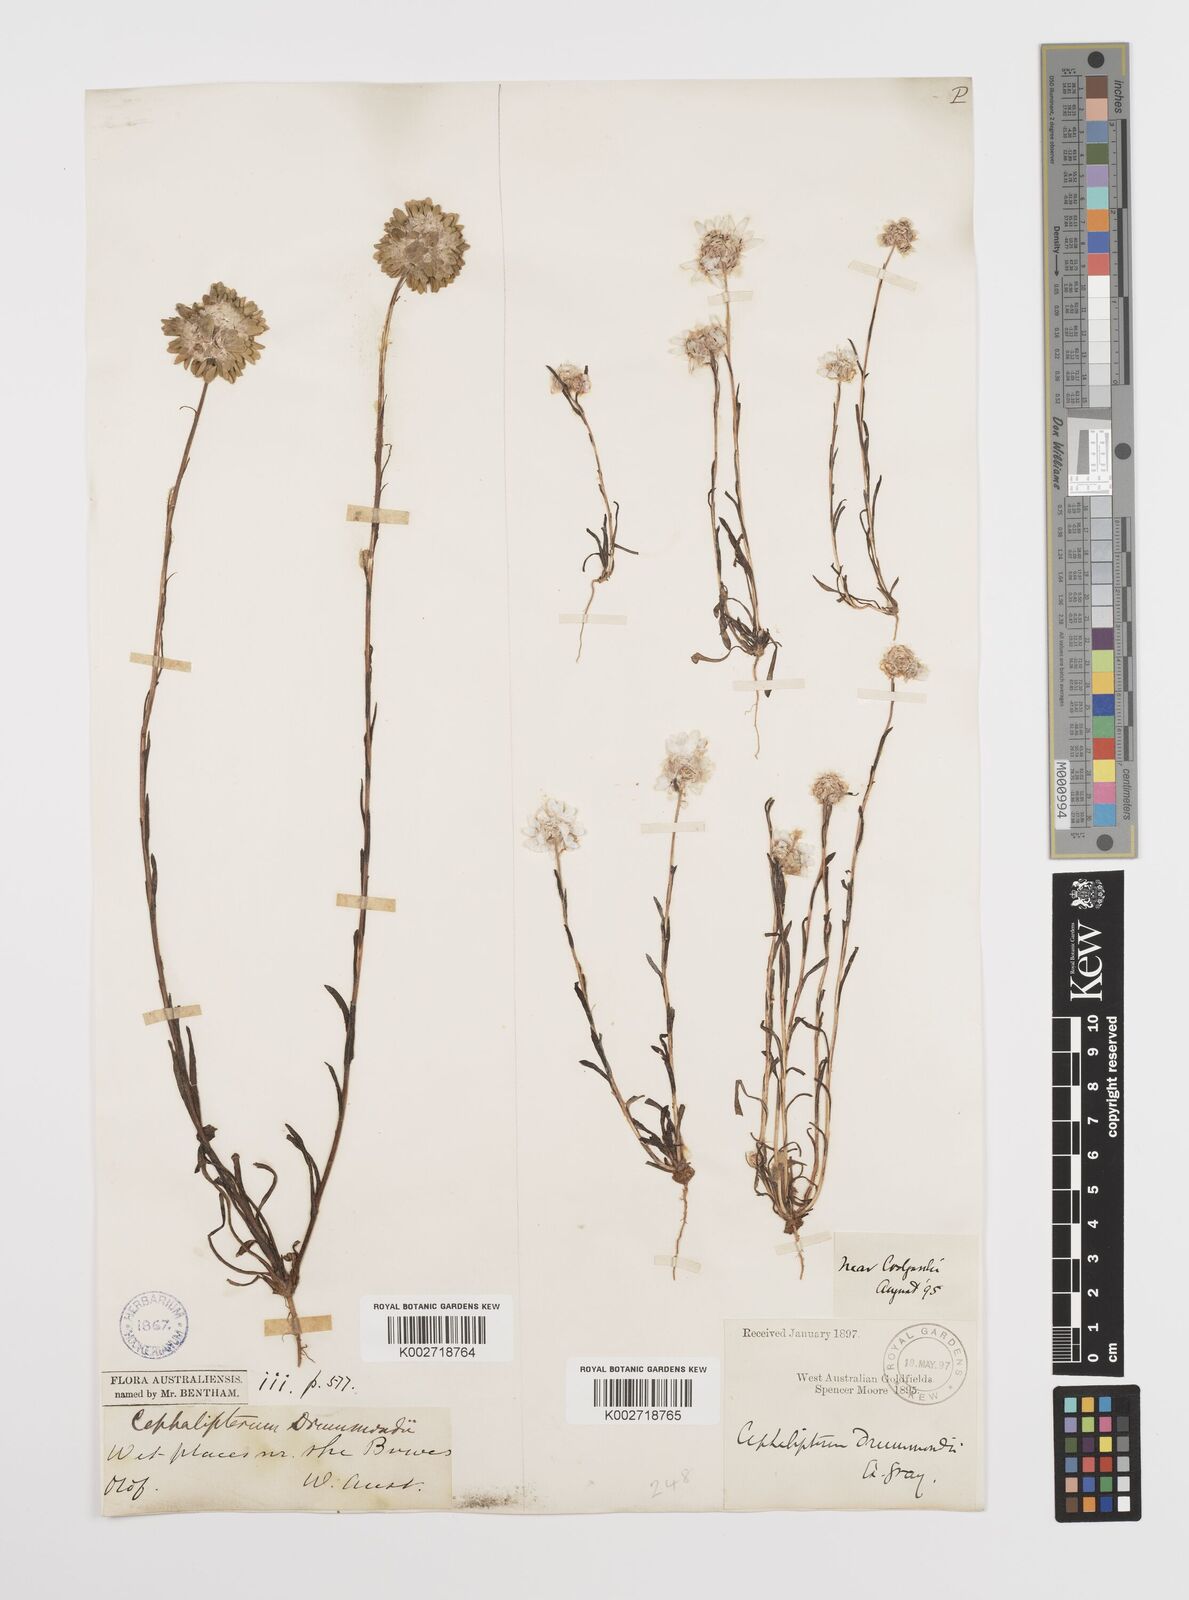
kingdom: Plantae
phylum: Tracheophyta
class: Magnoliopsida
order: Asterales
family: Asteraceae
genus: Cephalipterum
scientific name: Cephalipterum drummondii
